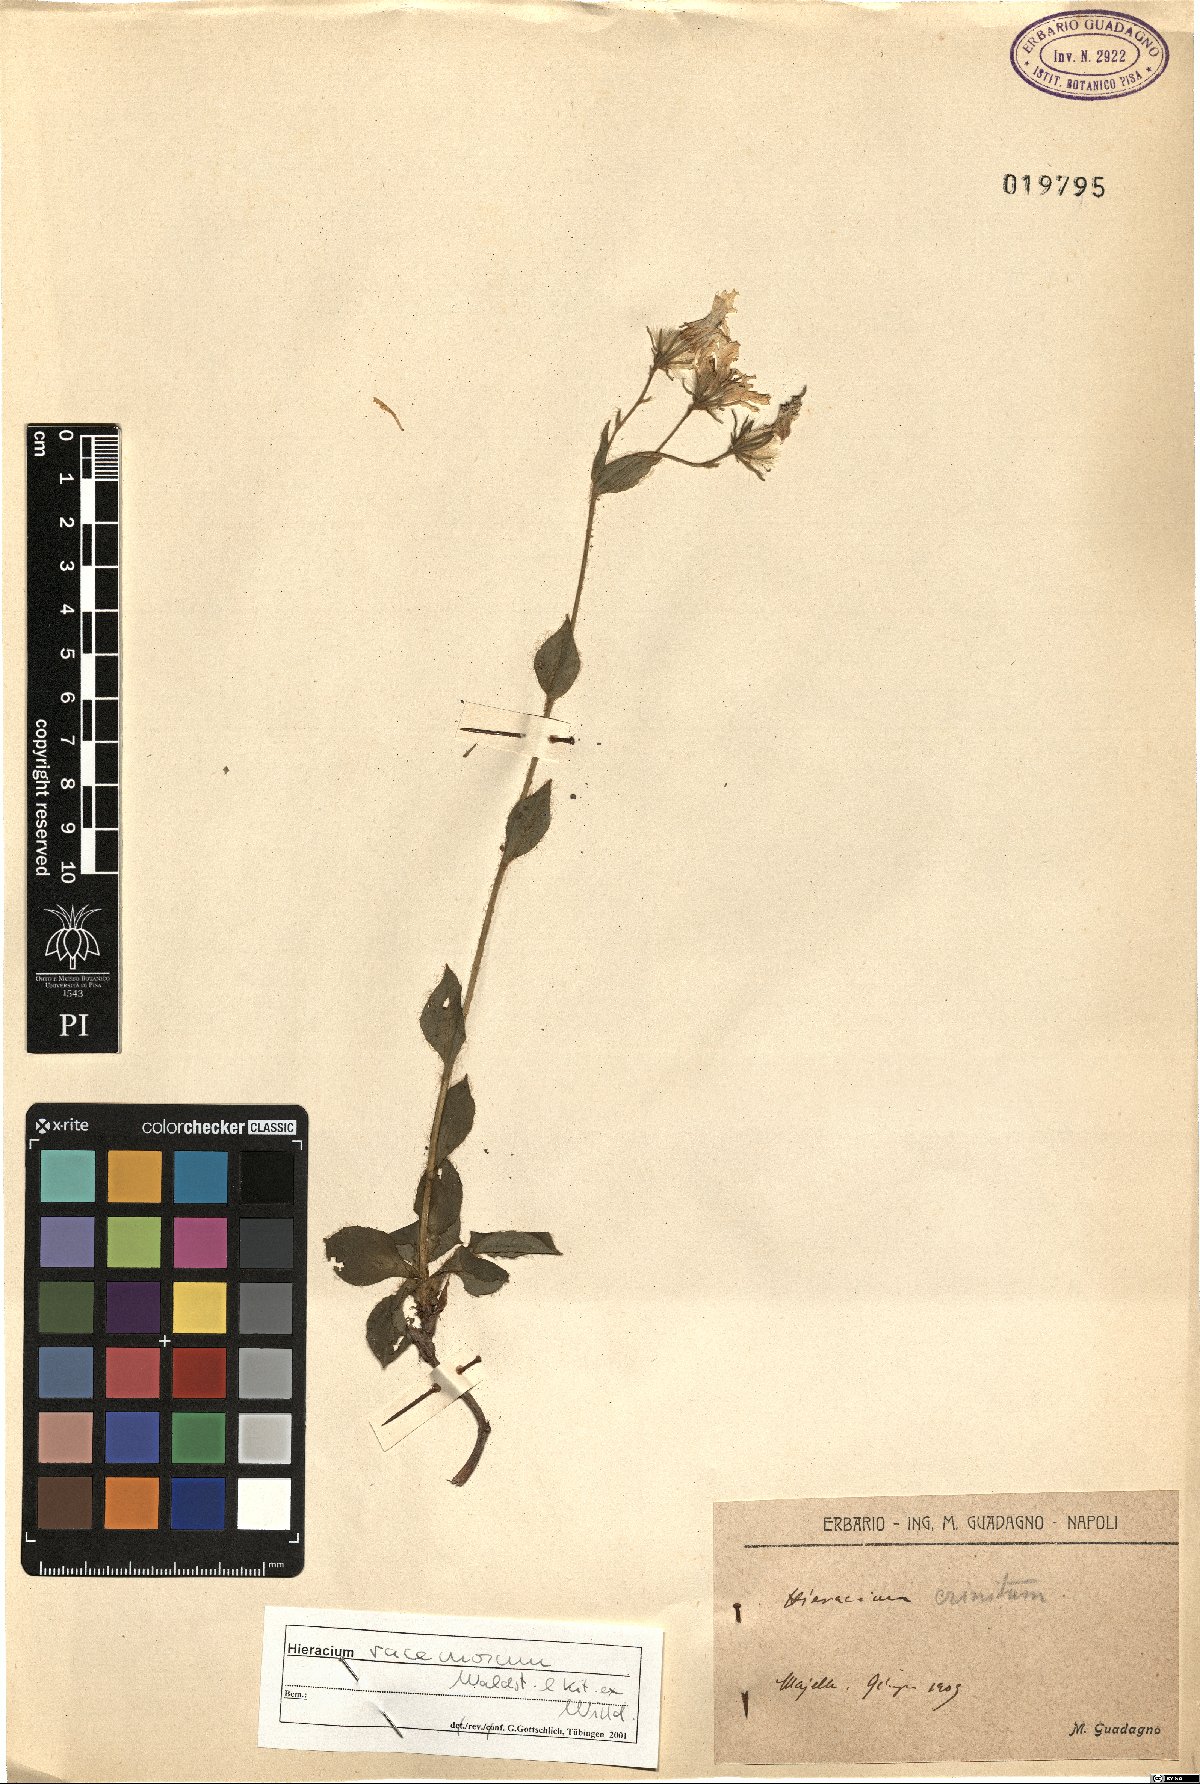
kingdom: Plantae
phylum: Tracheophyta
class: Magnoliopsida
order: Asterales
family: Asteraceae
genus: Hieracium
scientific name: Hieracium racemosum
